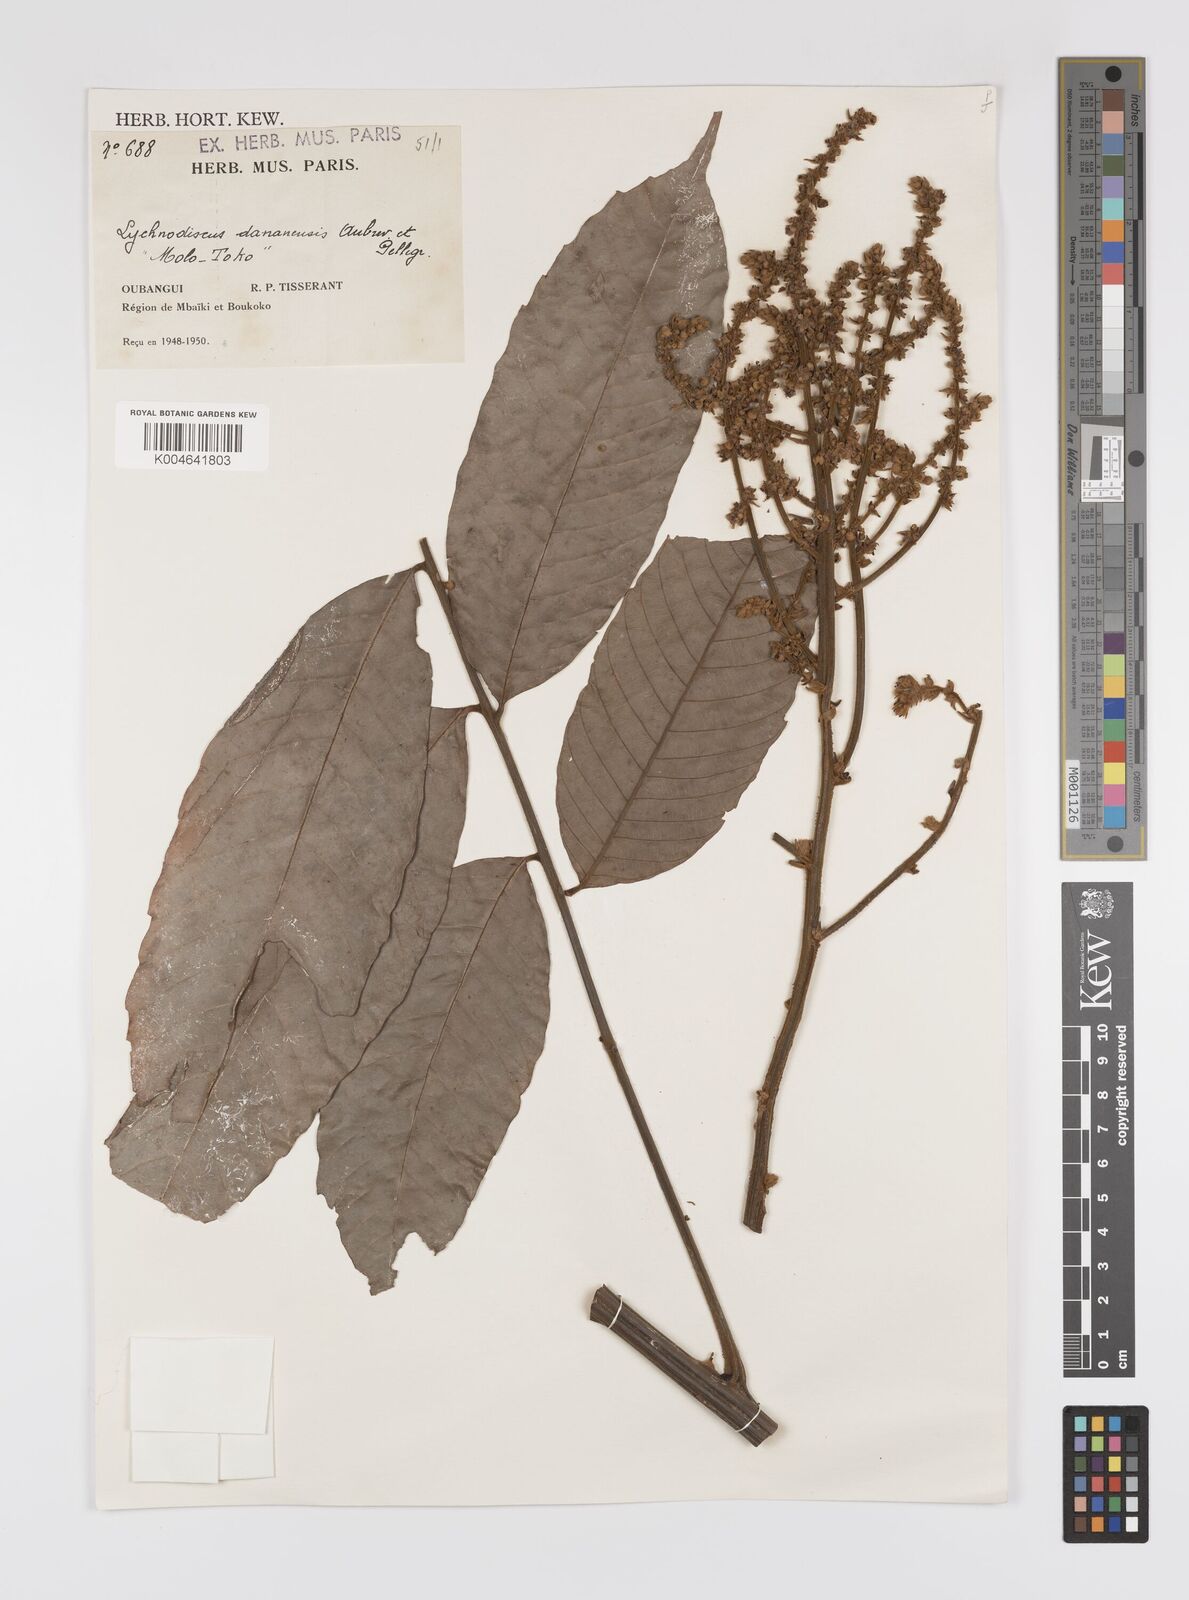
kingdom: Plantae
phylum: Tracheophyta
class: Magnoliopsida
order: Sapindales
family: Sapindaceae
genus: Lychnodiscus
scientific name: Lychnodiscus dananensis
